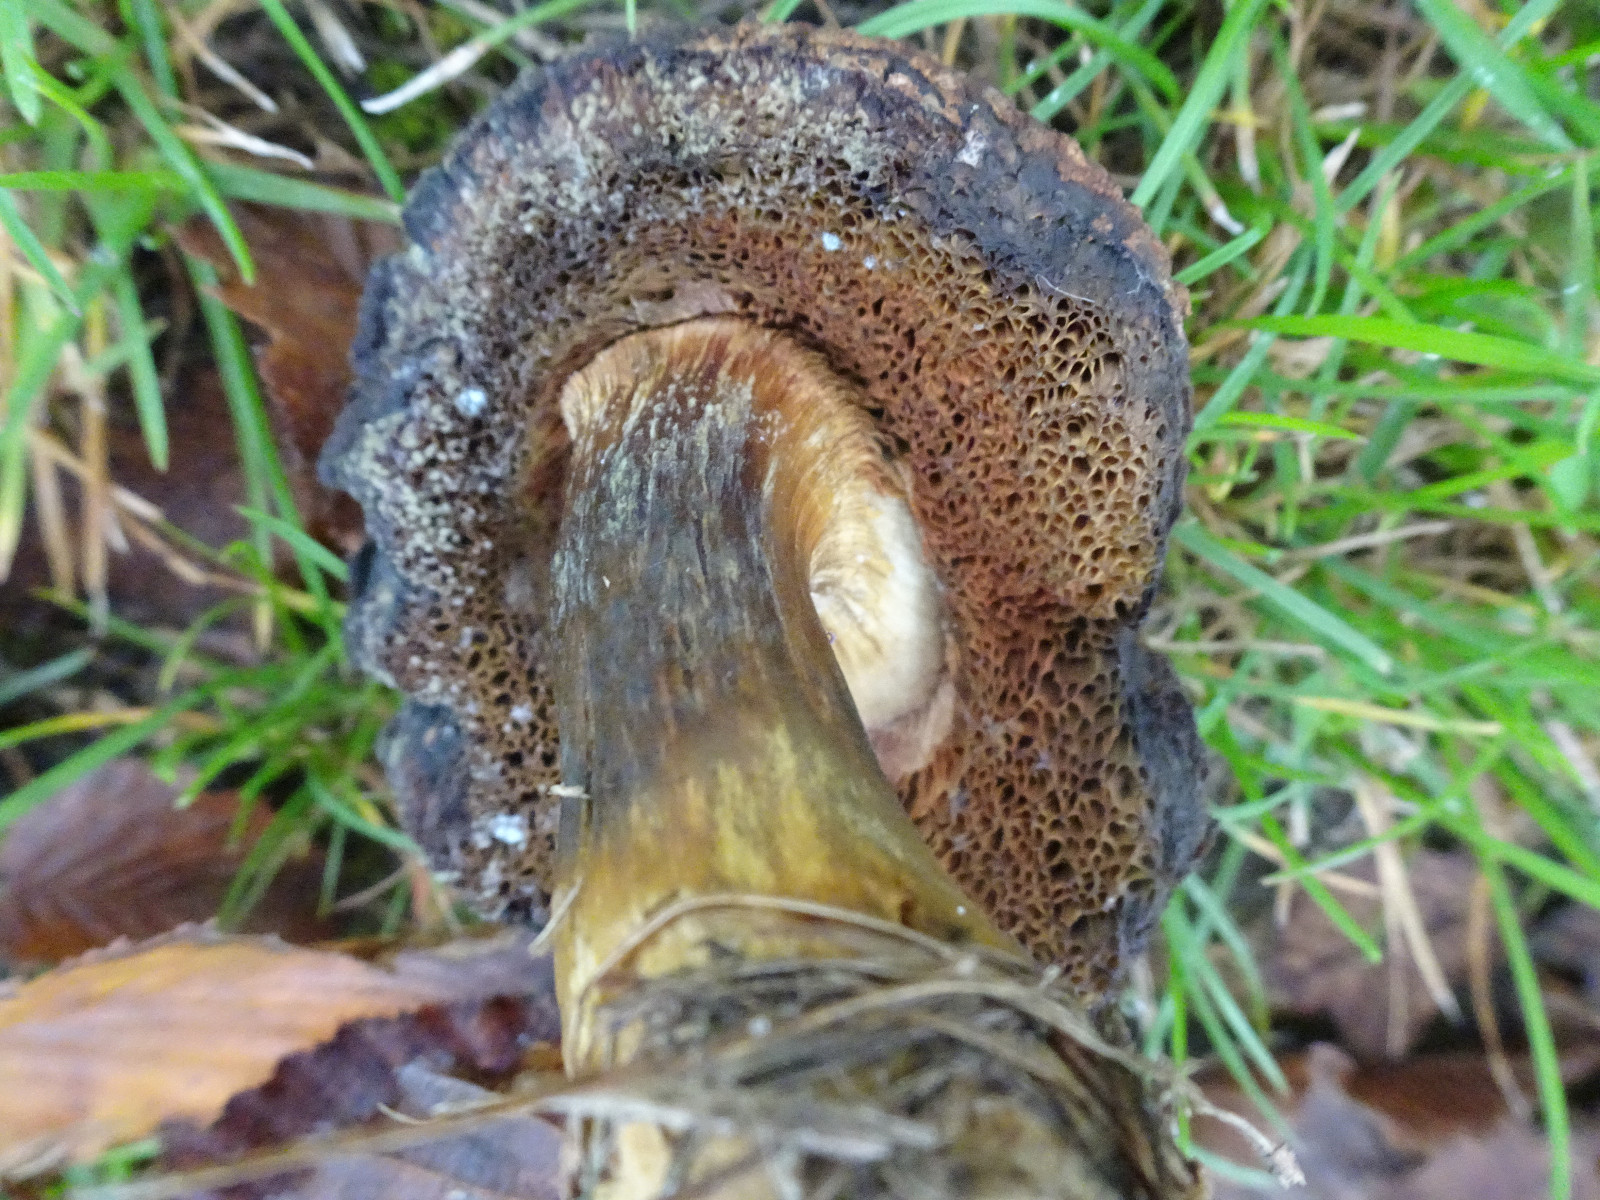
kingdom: Fungi
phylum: Ascomycota
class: Dothideomycetes
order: Capnodiales
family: Cladosporiaceae
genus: Cladosporium
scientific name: Cladosporium
